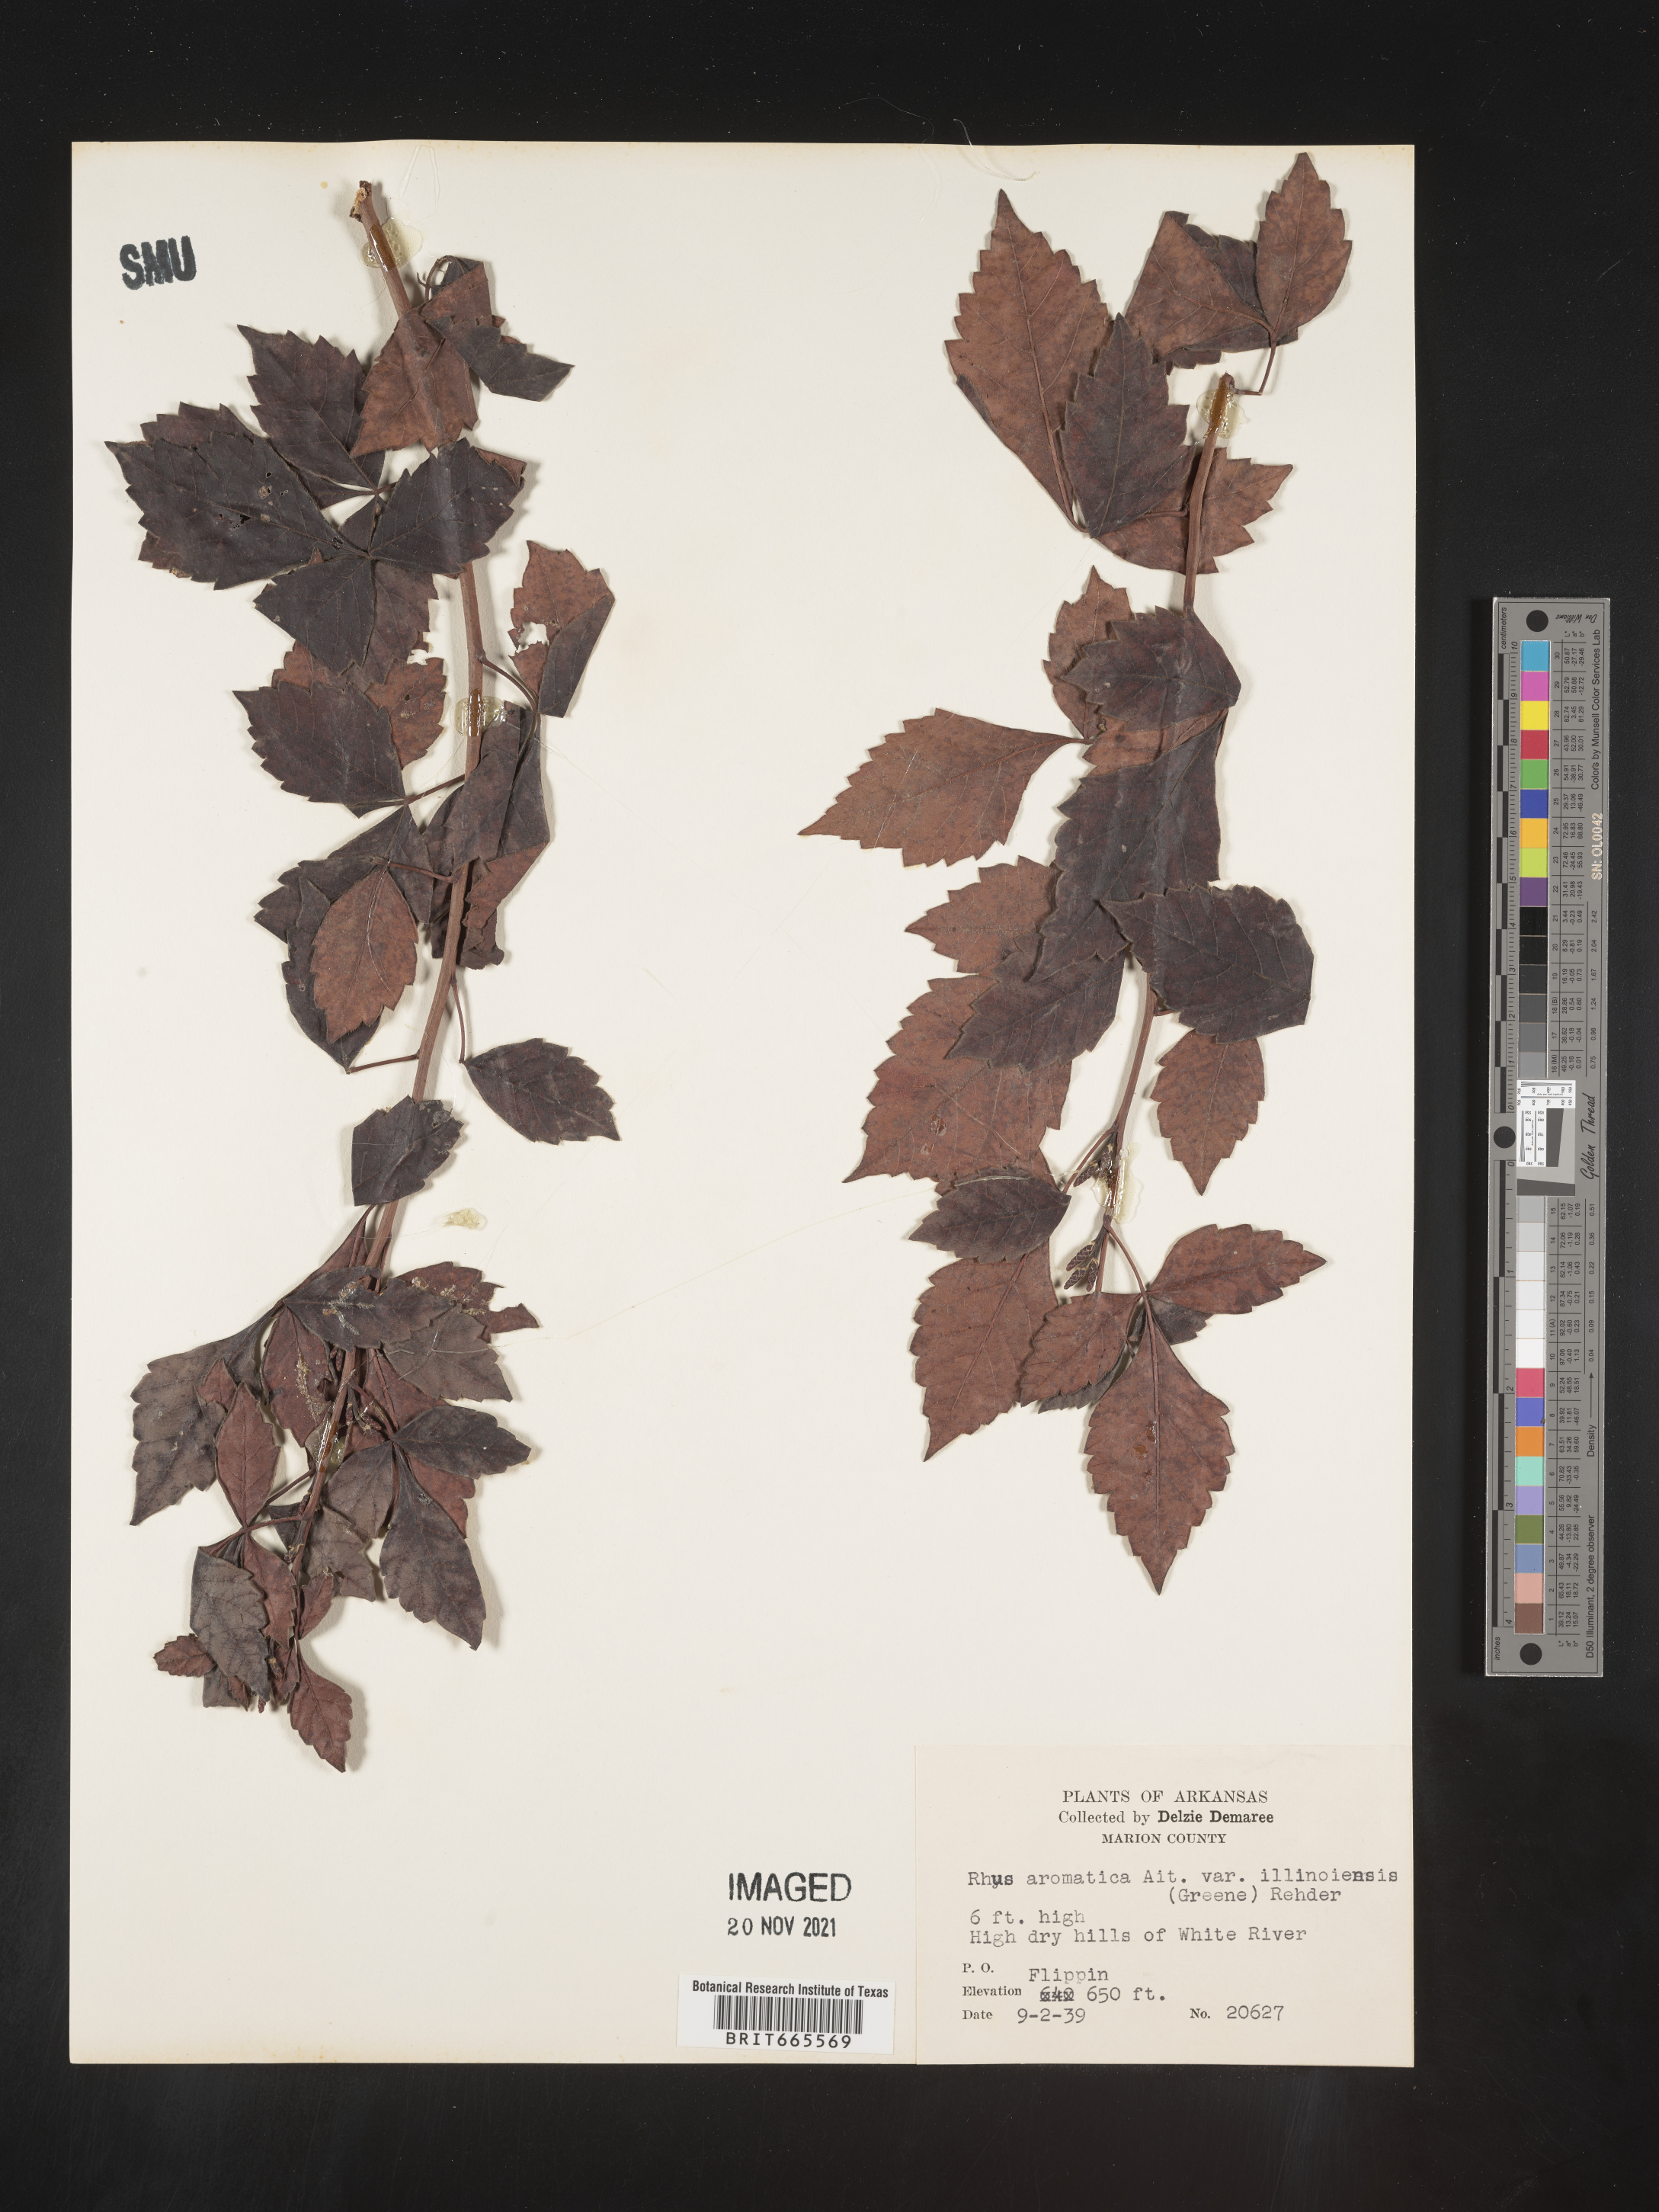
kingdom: Plantae
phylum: Tracheophyta
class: Magnoliopsida
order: Sapindales
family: Anacardiaceae
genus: Rhus
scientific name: Rhus aromatica
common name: Aromatic sumac
